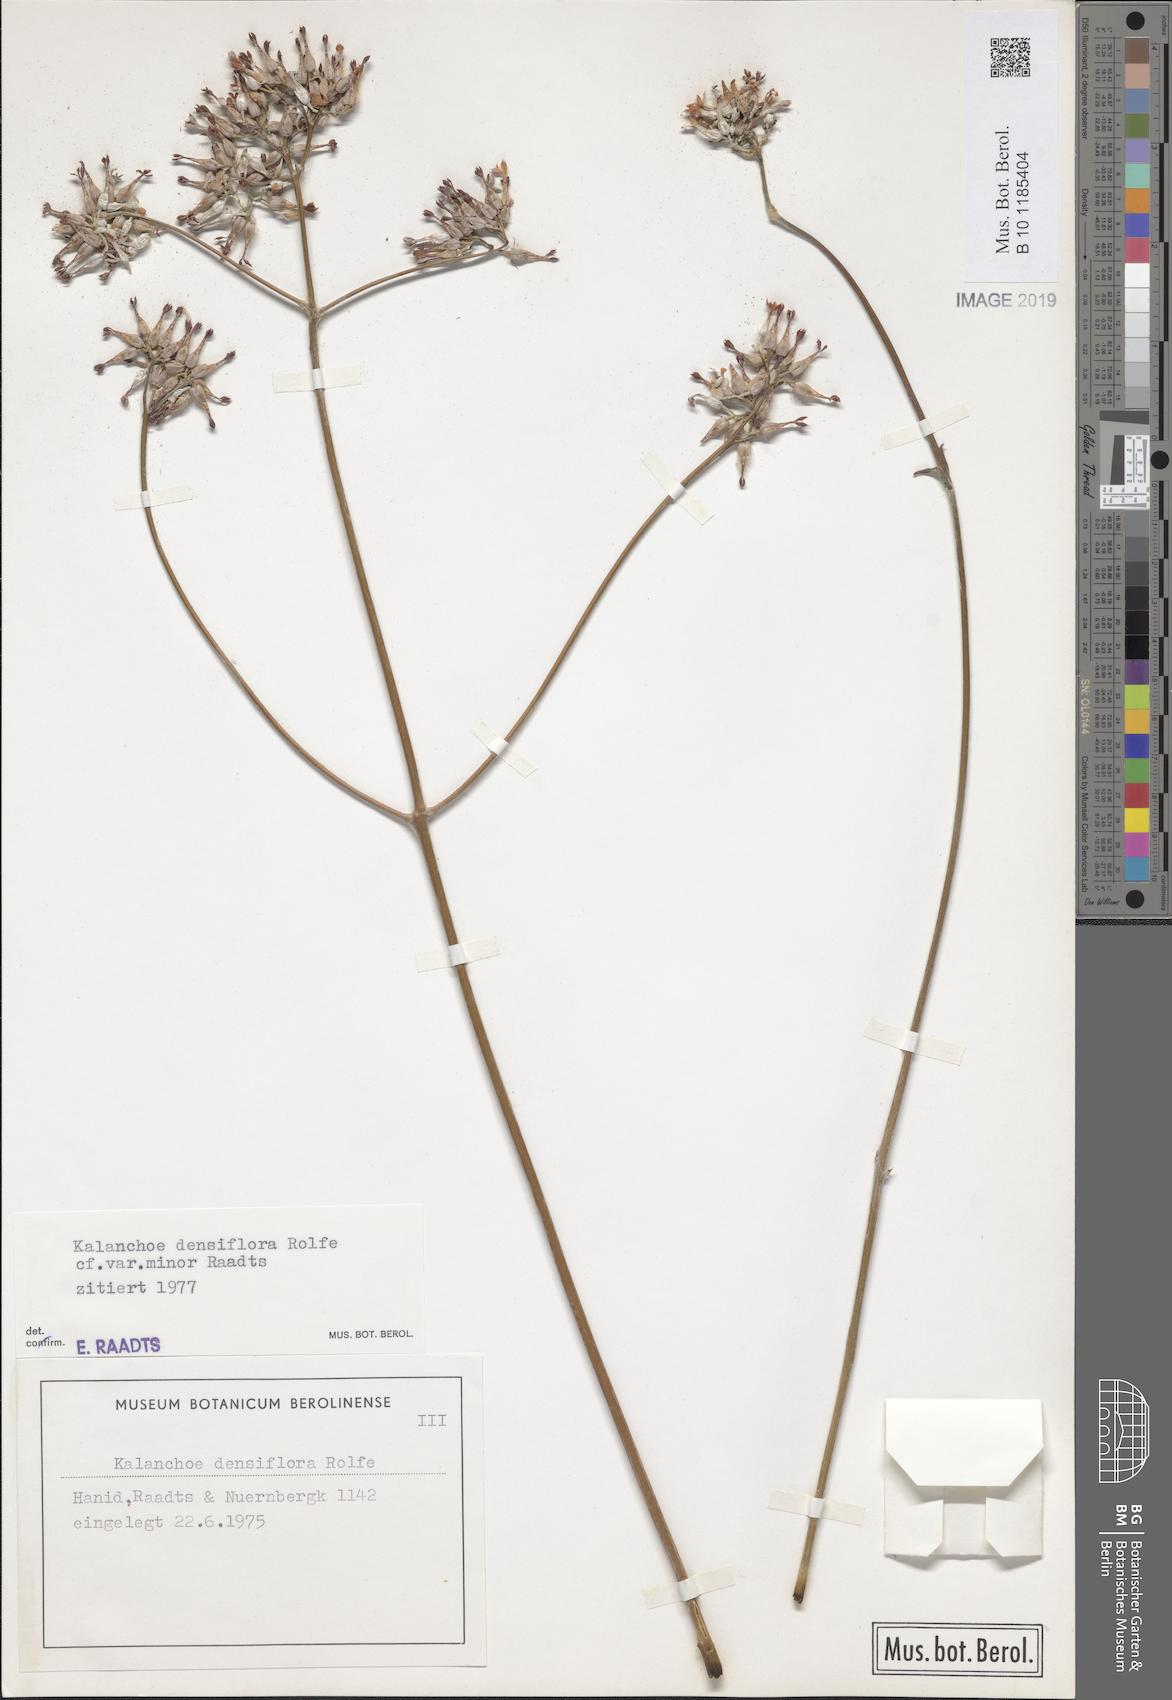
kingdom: Plantae
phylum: Tracheophyta
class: Magnoliopsida
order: Saxifragales
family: Crassulaceae
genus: Kalanchoe
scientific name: Kalanchoe densiflora
